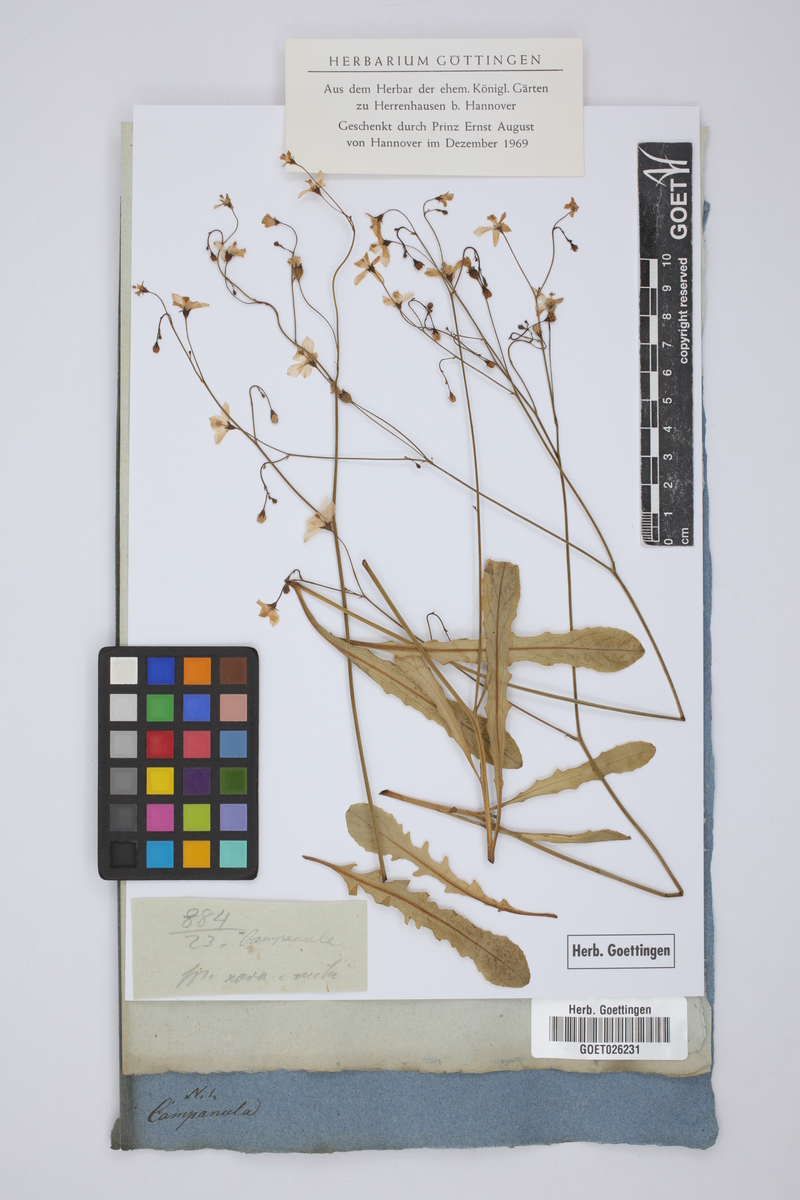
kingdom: Plantae
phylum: Tracheophyta
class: Magnoliopsida
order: Asterales
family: Campanulaceae
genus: Campanula
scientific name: Campanula
